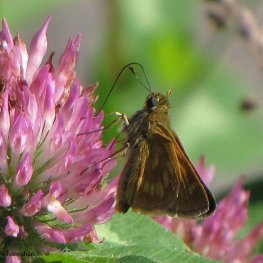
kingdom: Animalia
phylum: Arthropoda
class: Insecta
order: Lepidoptera
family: Hesperiidae
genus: Polites
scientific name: Polites
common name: Long Dash Skipper
